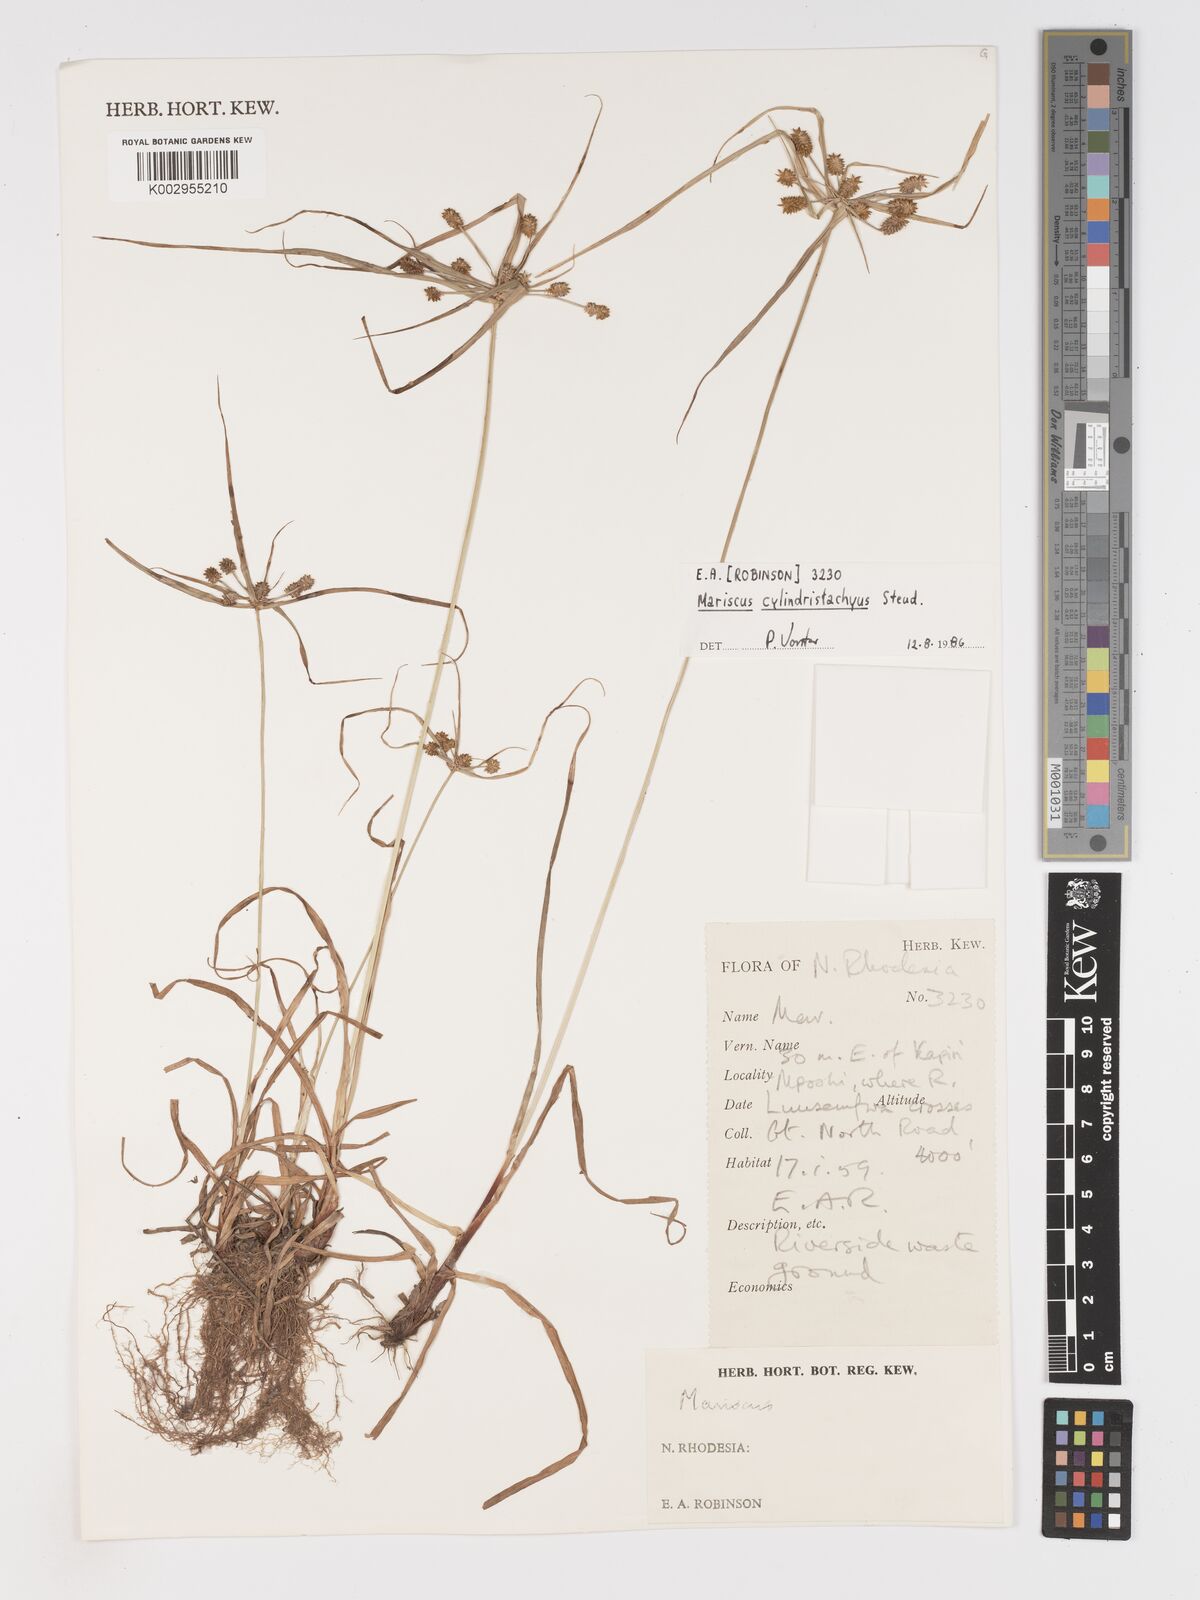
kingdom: Plantae
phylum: Tracheophyta
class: Liliopsida
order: Poales
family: Cyperaceae
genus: Cyperus
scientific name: Cyperus
